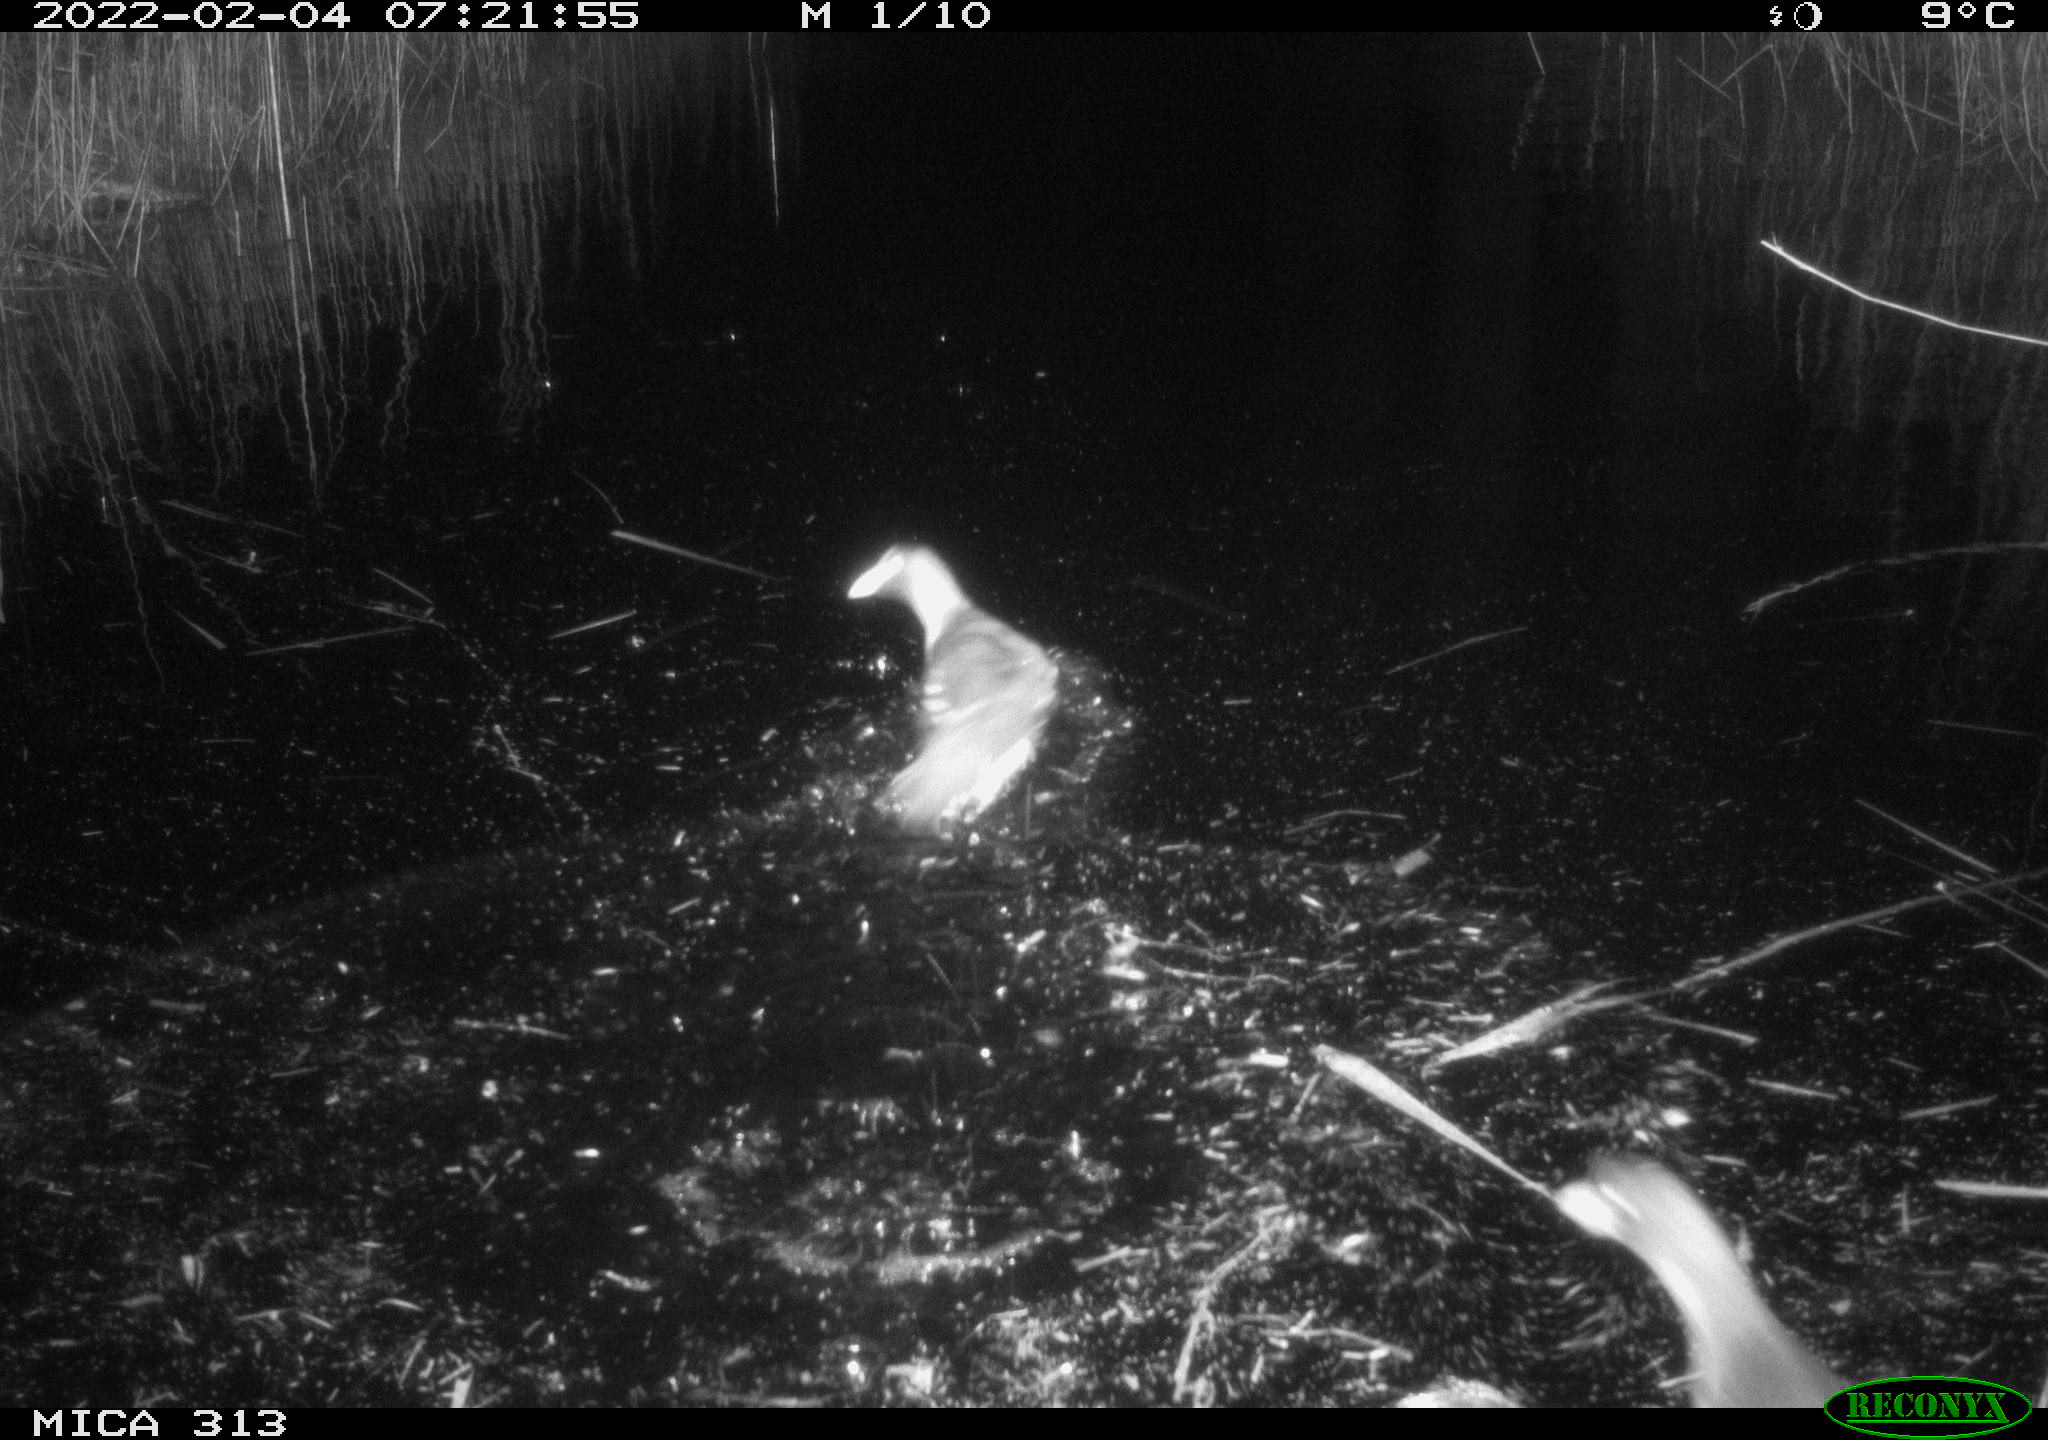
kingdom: Animalia
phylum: Chordata
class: Aves
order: Gruiformes
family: Rallidae
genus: Gallinula
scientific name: Gallinula chloropus
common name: Common moorhen
